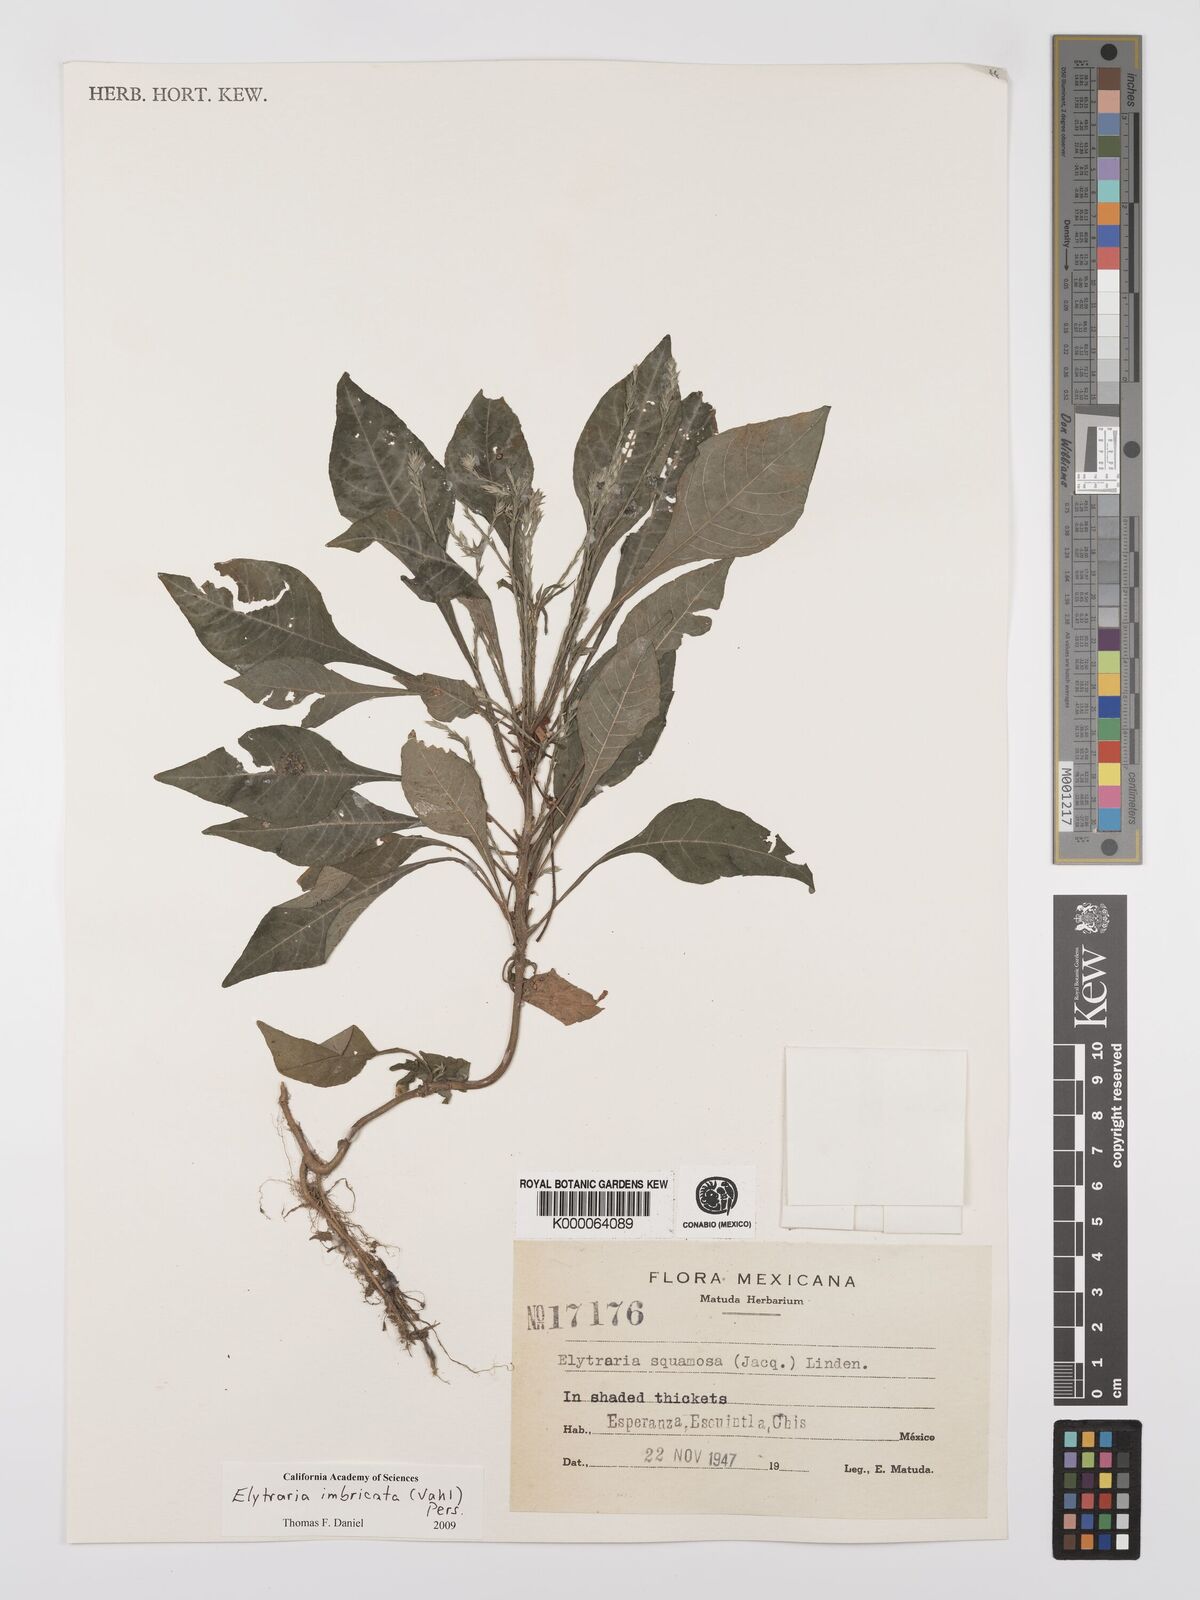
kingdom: Plantae
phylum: Tracheophyta
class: Magnoliopsida
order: Lamiales
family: Acanthaceae
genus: Elytraria
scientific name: Elytraria imbricata
